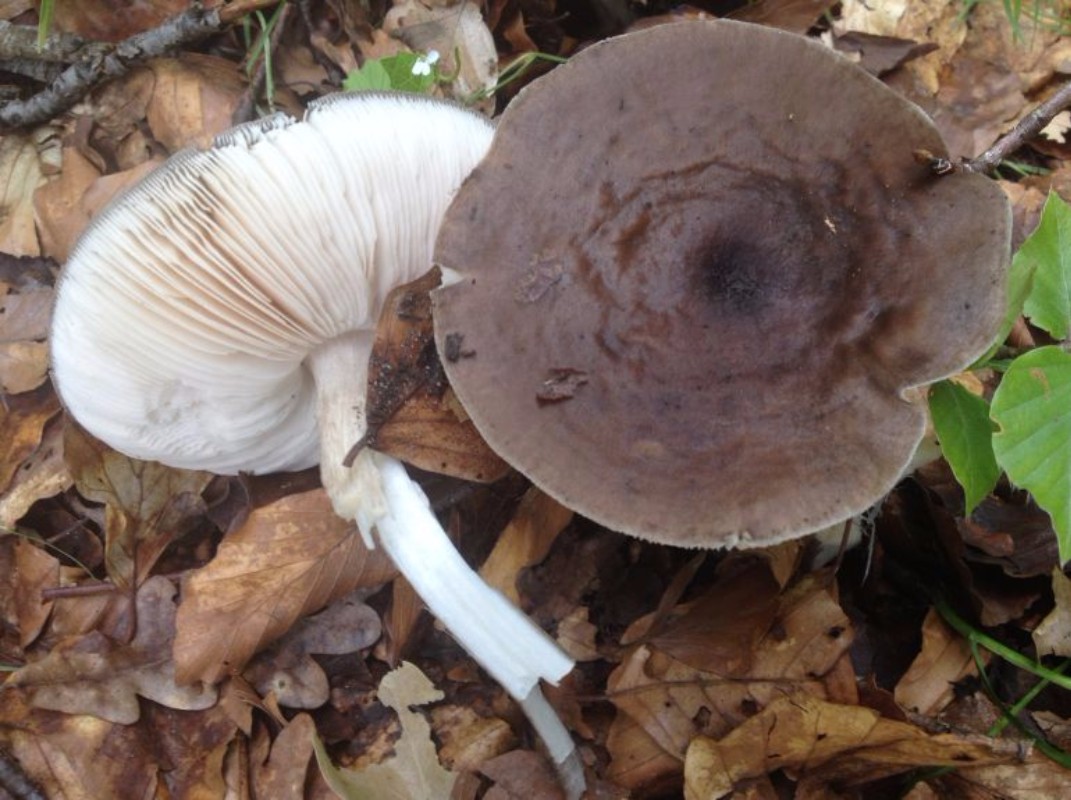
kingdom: Fungi
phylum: Basidiomycota
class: Agaricomycetes
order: Agaricales
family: Pluteaceae
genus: Pluteus
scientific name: Pluteus cervinus
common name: sodfarvet skærmhat
